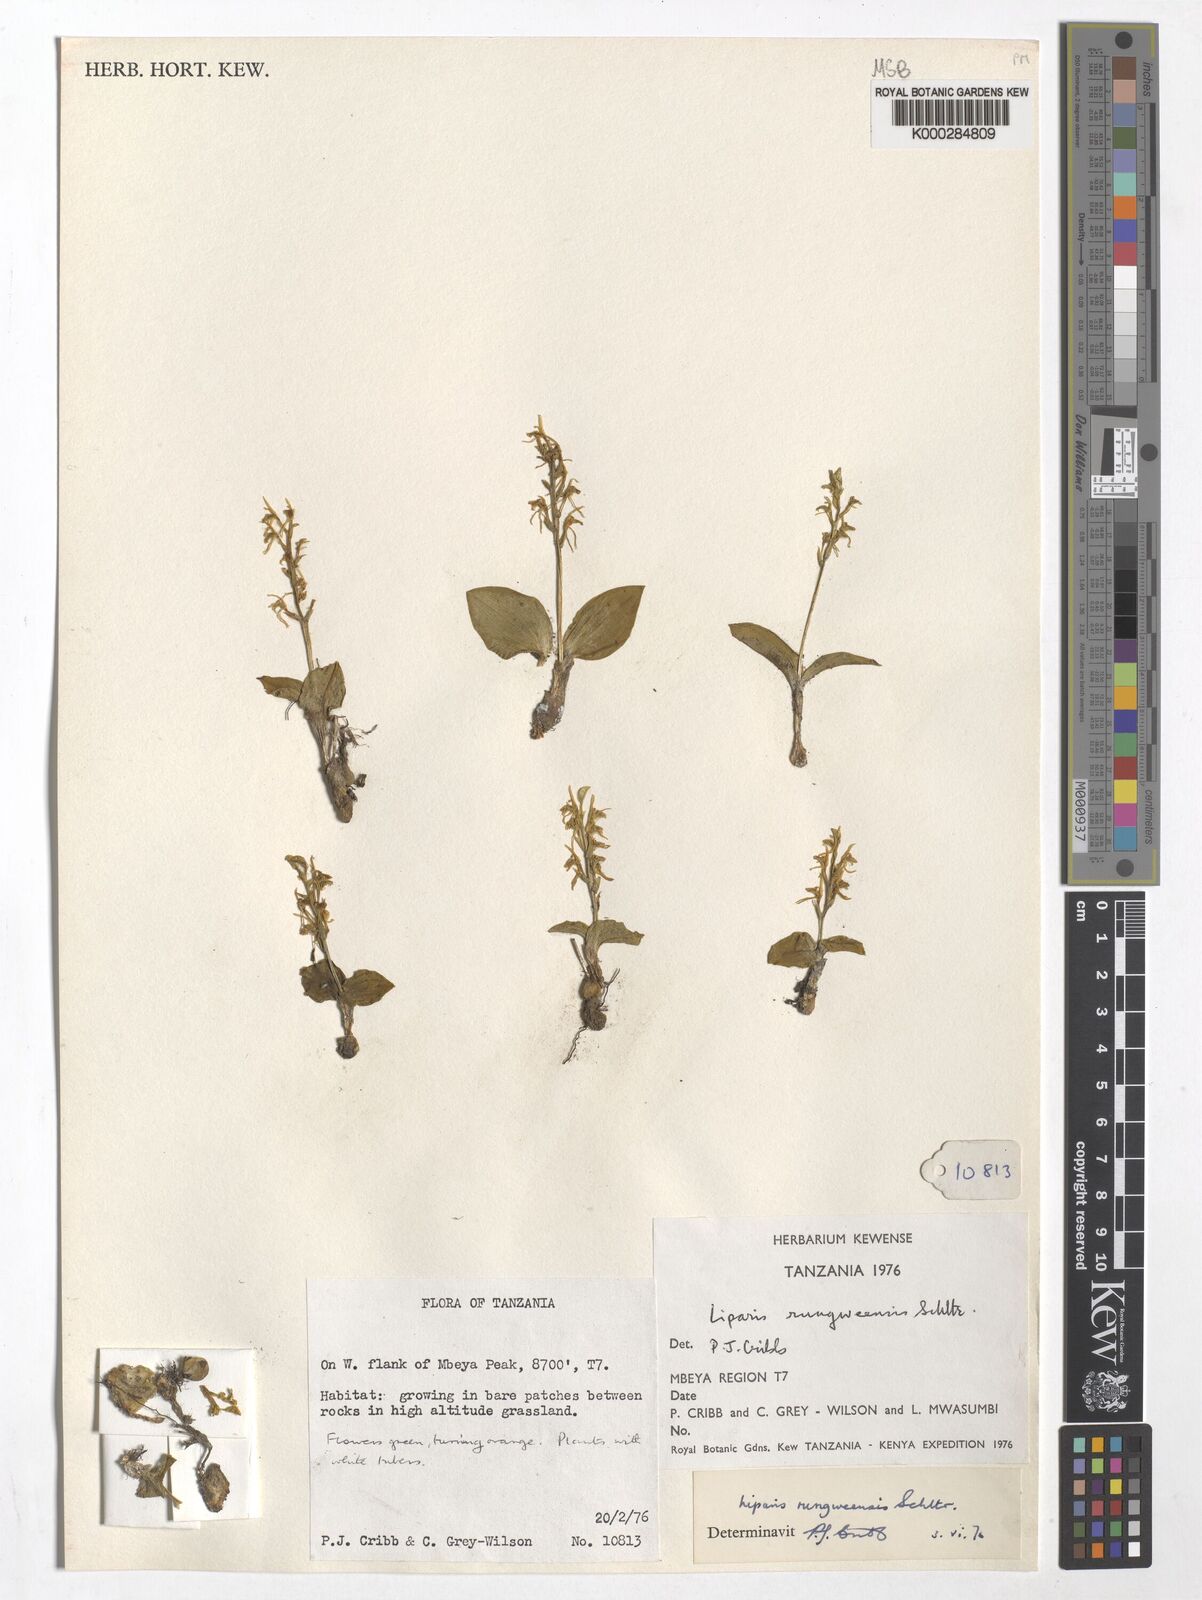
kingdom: Plantae
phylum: Tracheophyta
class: Liliopsida
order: Asparagales
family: Orchidaceae
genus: Liparis
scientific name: Liparis rungweensis
